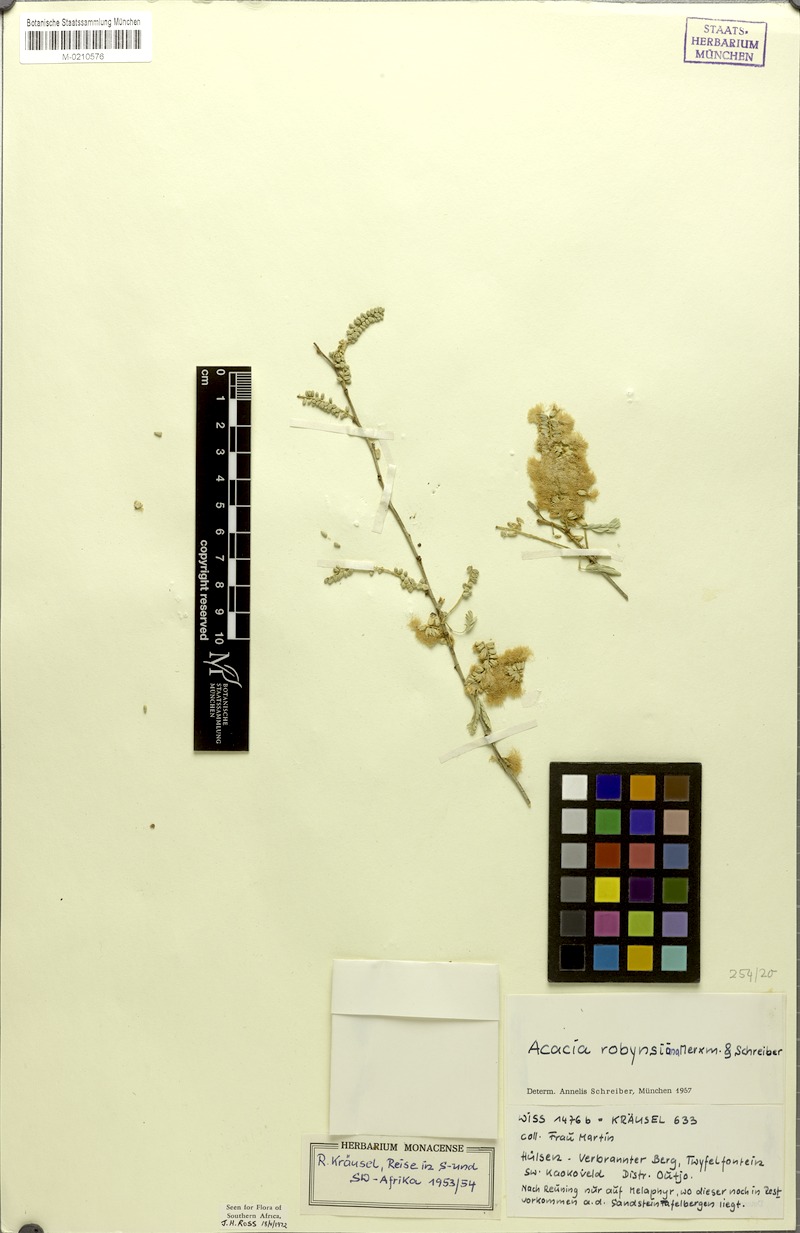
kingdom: Plantae
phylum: Tracheophyta
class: Magnoliopsida
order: Fabales
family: Fabaceae
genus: Senegalia
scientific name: Senegalia robynsiana
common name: Whip stick acacia
